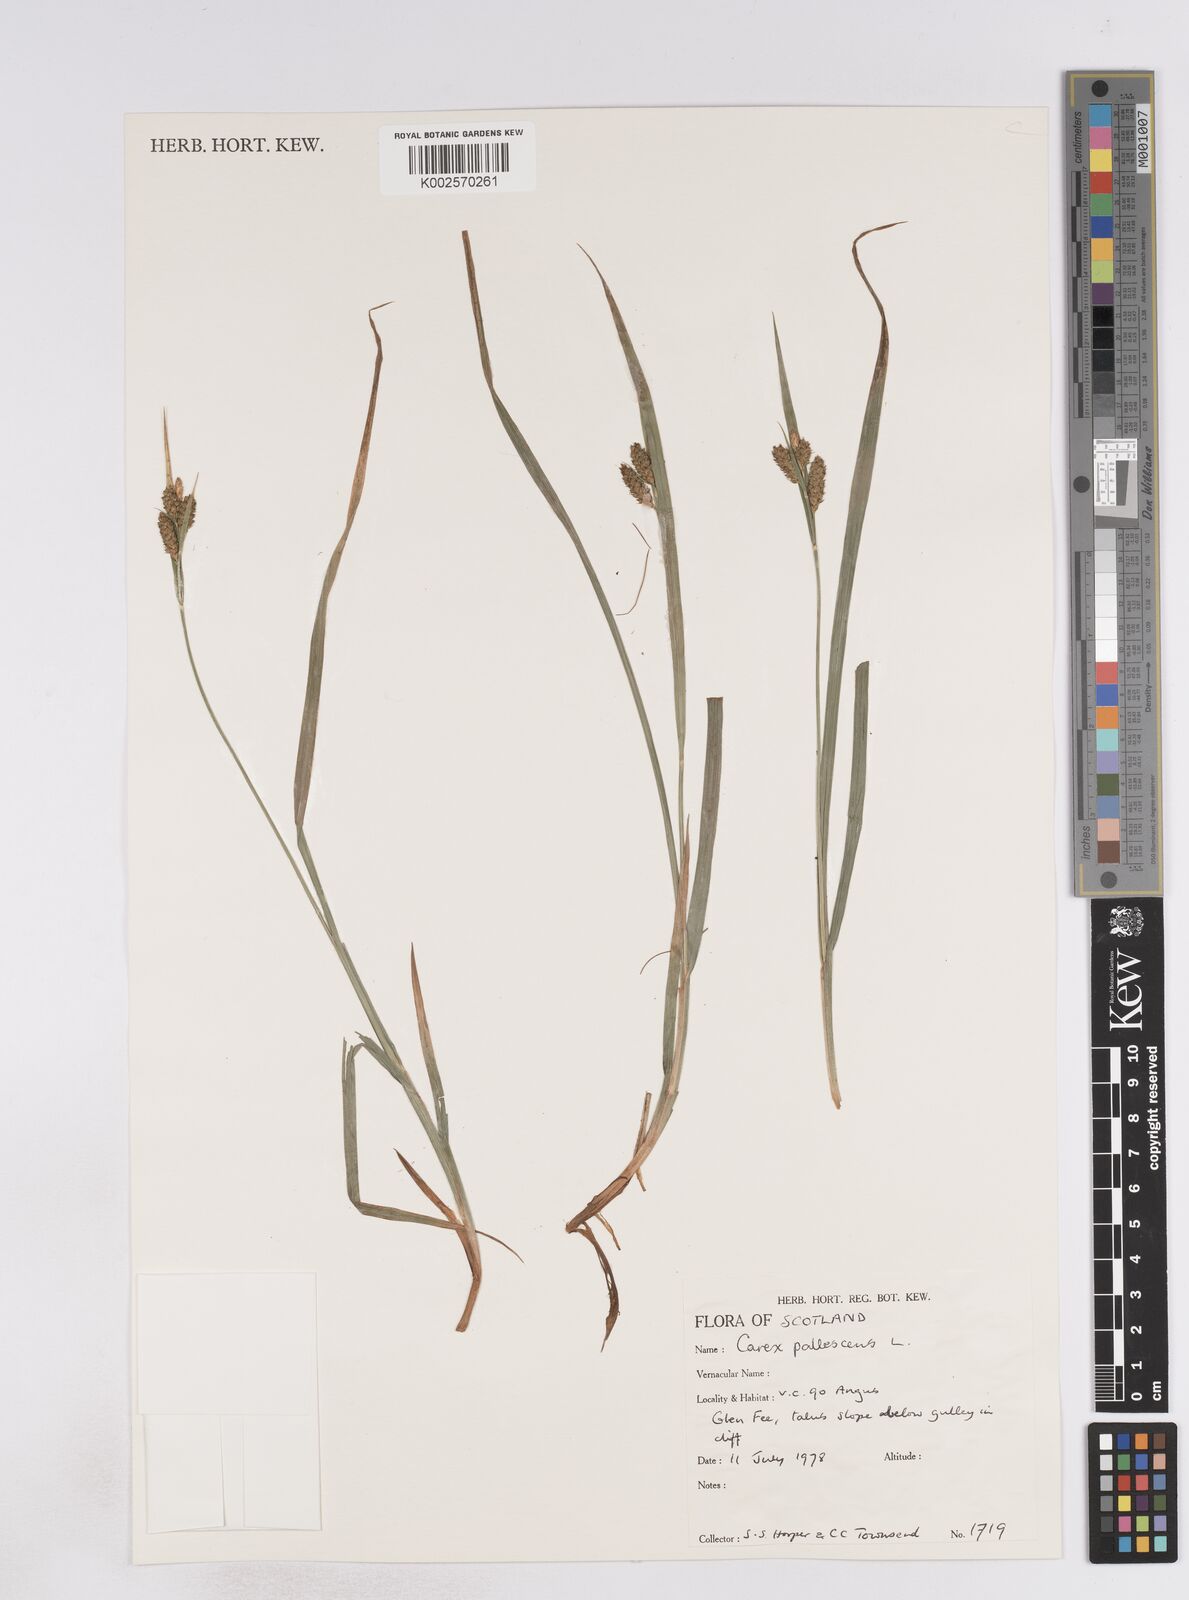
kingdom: Plantae
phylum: Tracheophyta
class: Liliopsida
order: Poales
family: Cyperaceae
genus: Carex
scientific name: Carex pallescens
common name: Pale sedge
